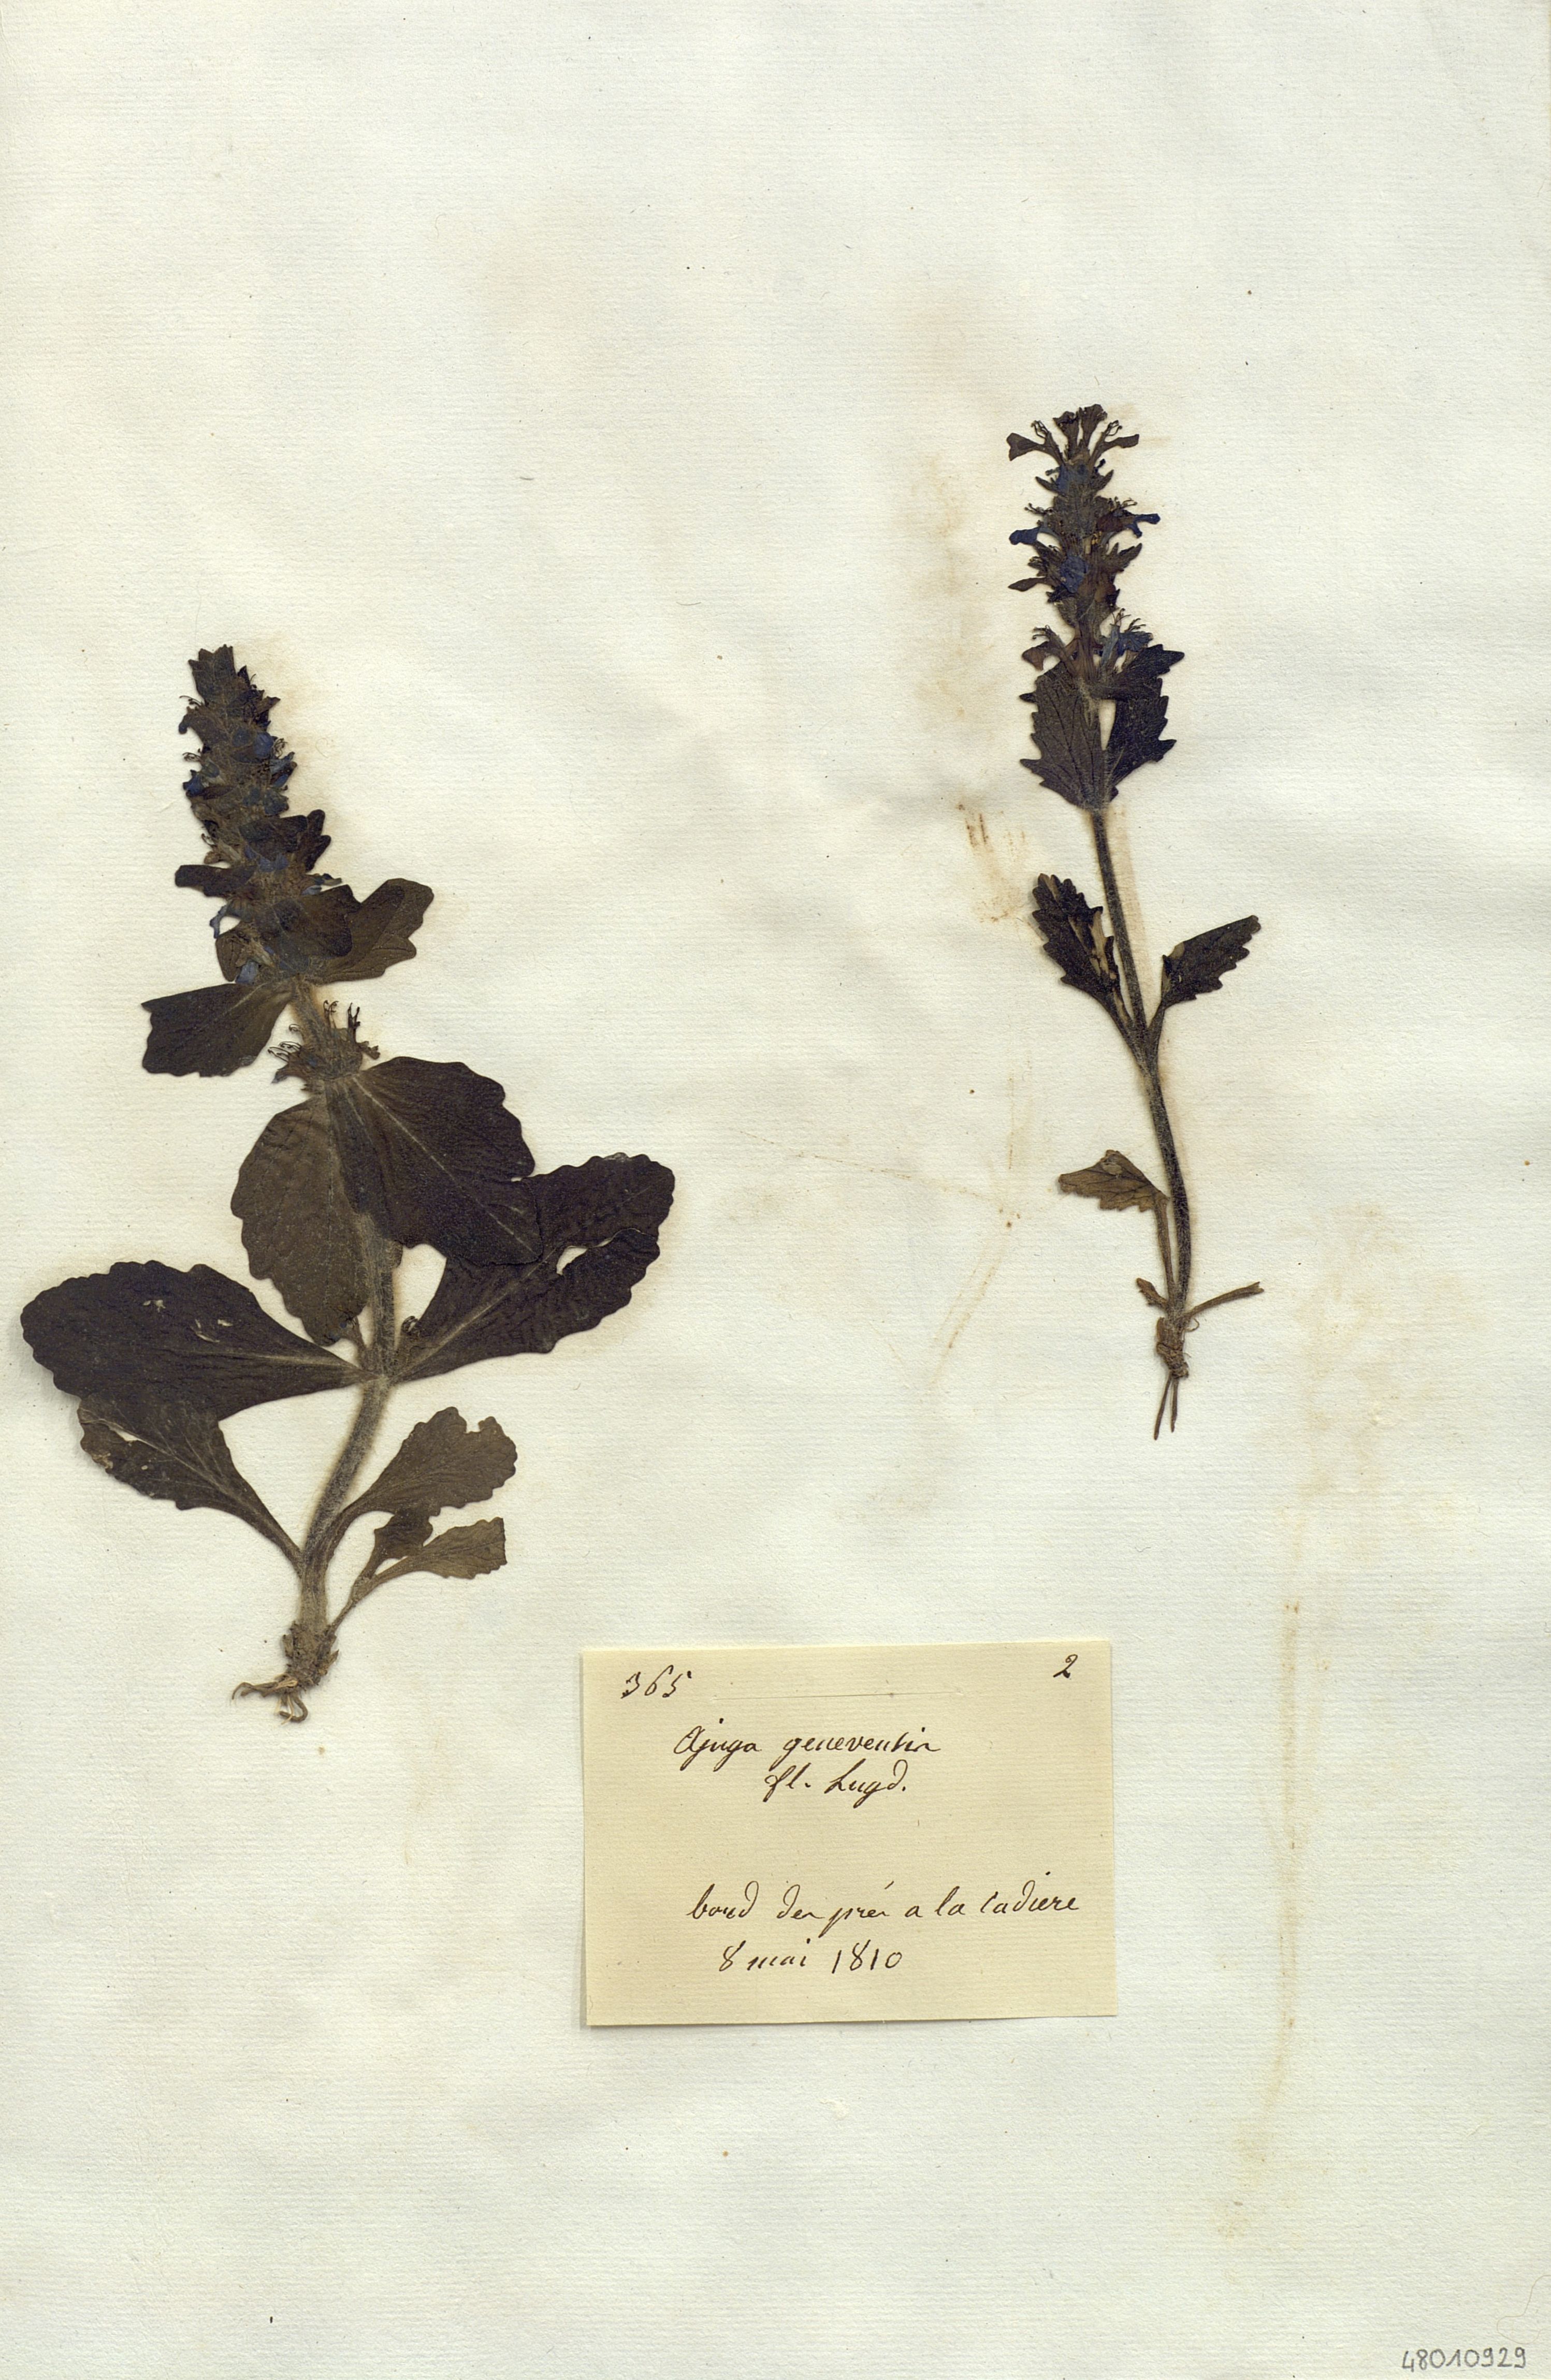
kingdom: Plantae
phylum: Tracheophyta
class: Magnoliopsida
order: Lamiales
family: Lamiaceae
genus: Ajuga
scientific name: Ajuga genevensis
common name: Blue bugle
